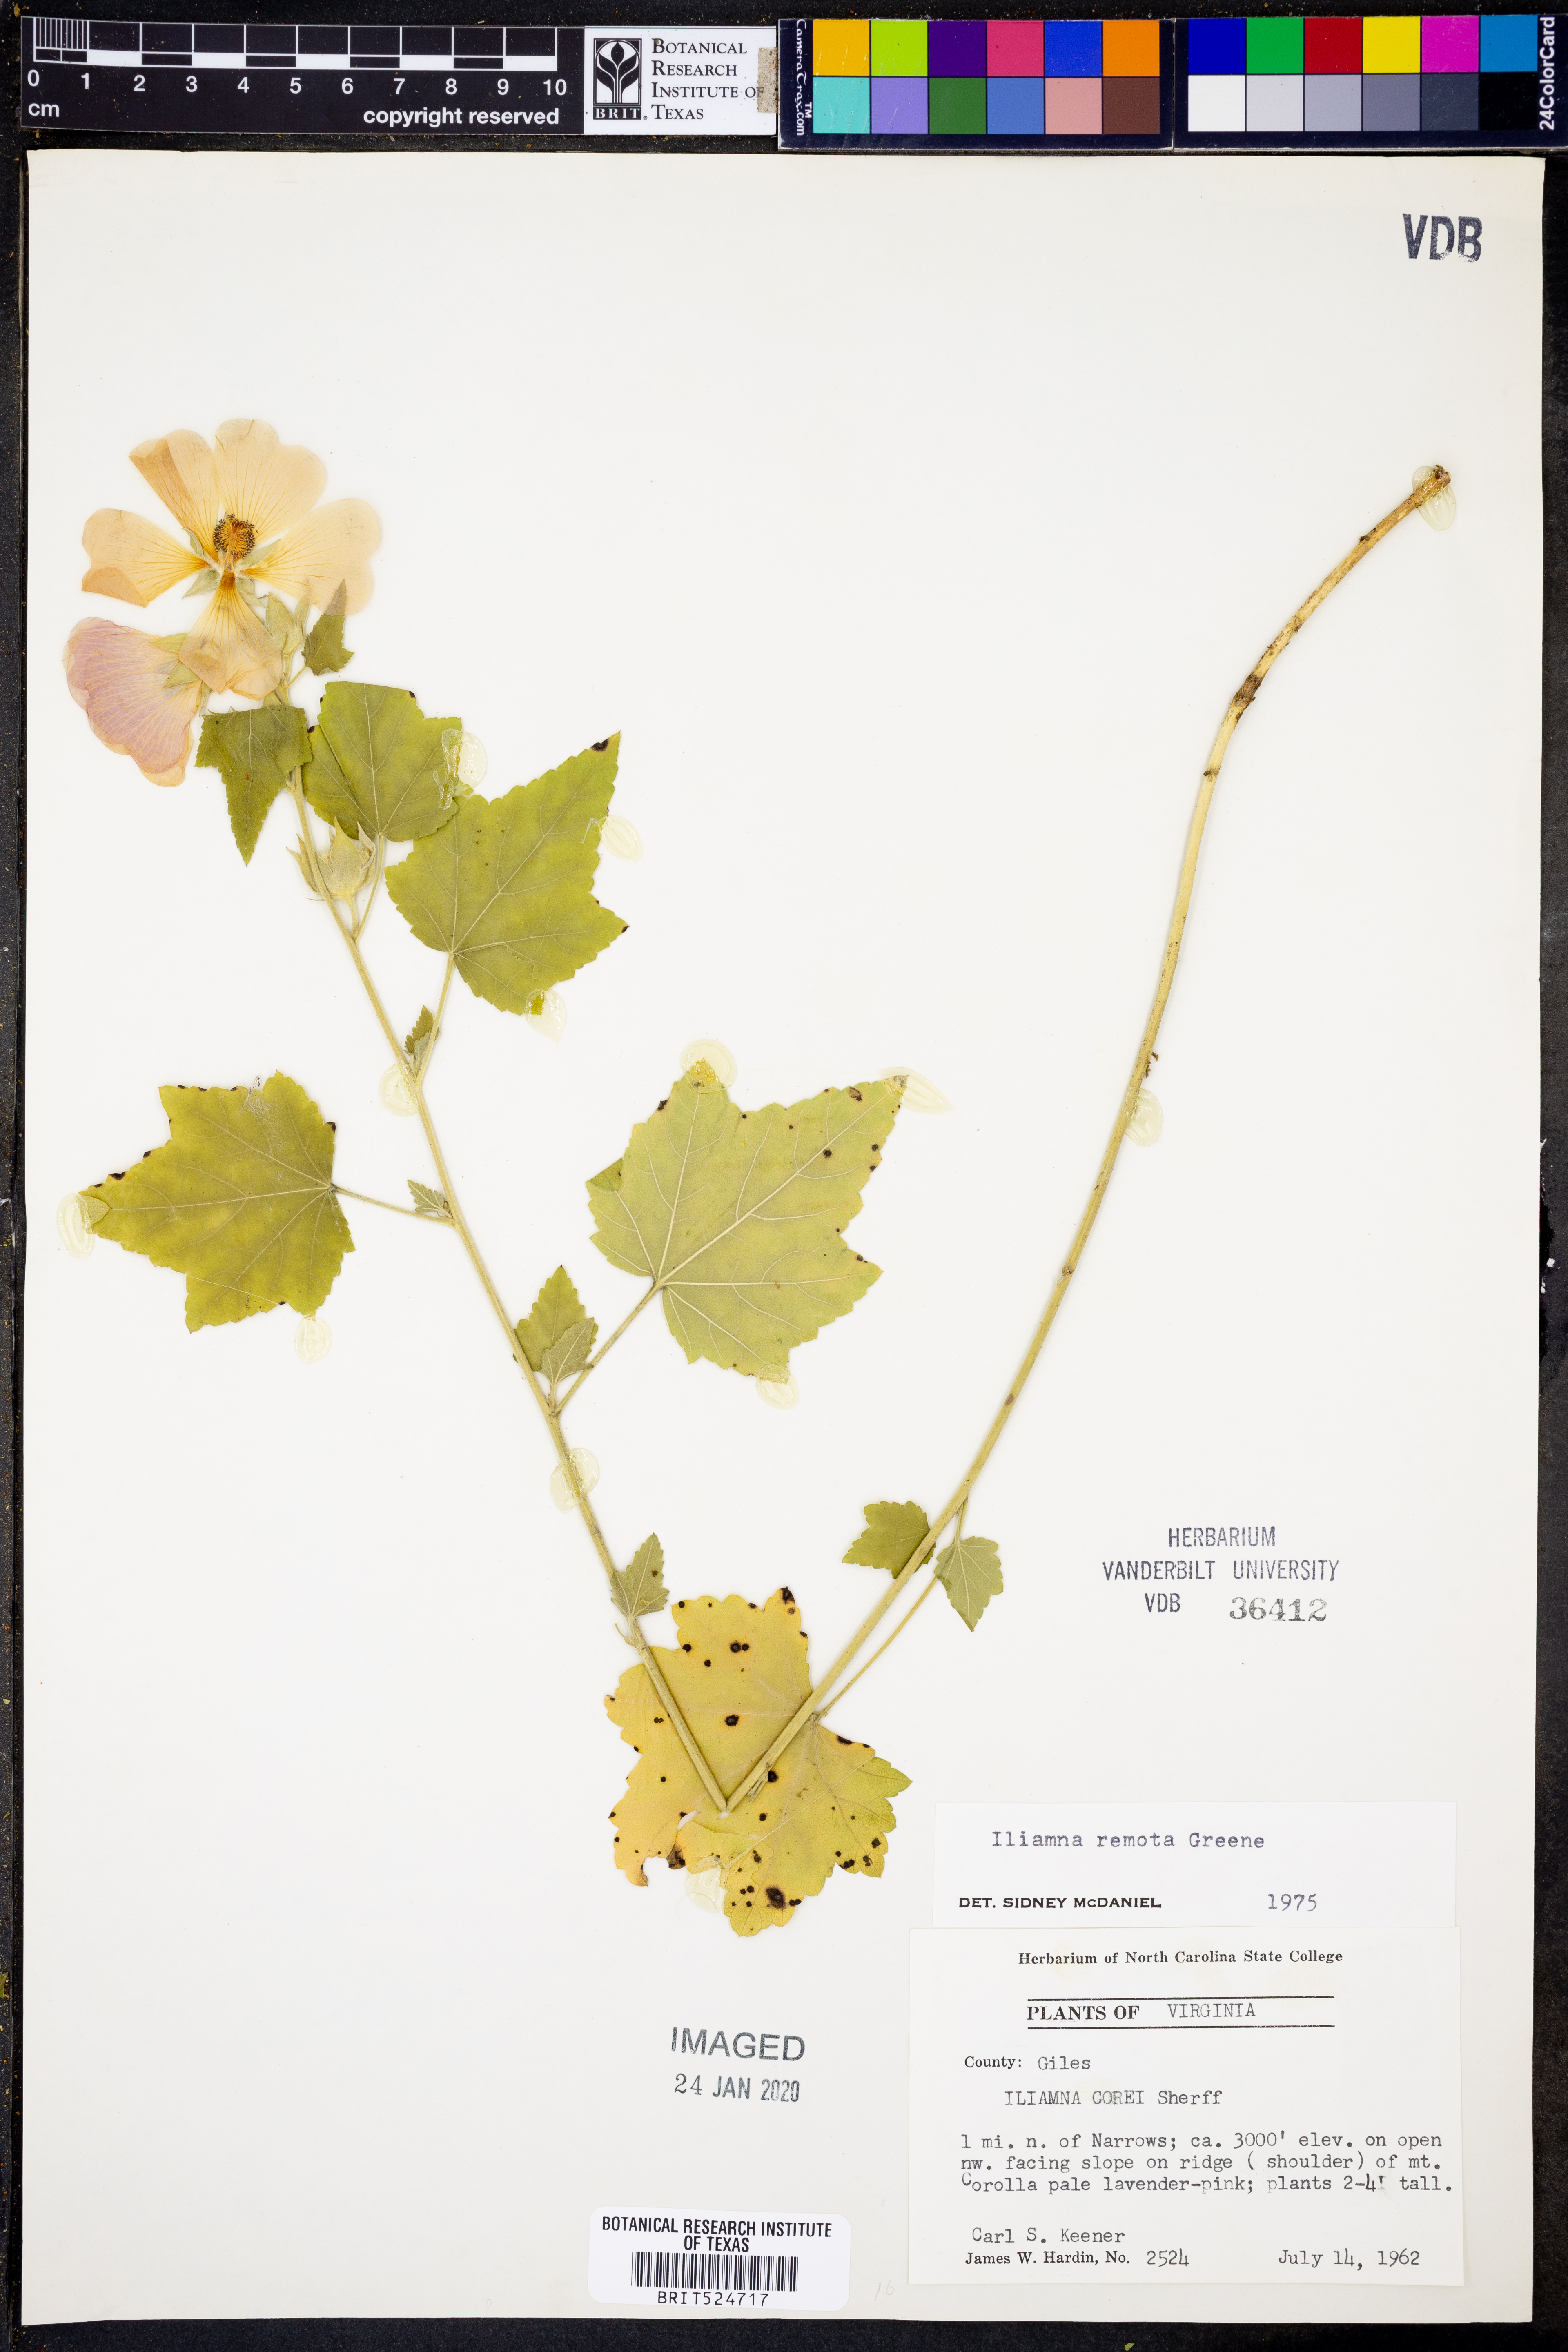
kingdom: Plantae
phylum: Tracheophyta
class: Magnoliopsida
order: Malvales
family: Malvaceae
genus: Iliamna
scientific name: Iliamna remota
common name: Kankakee globe-mallow
